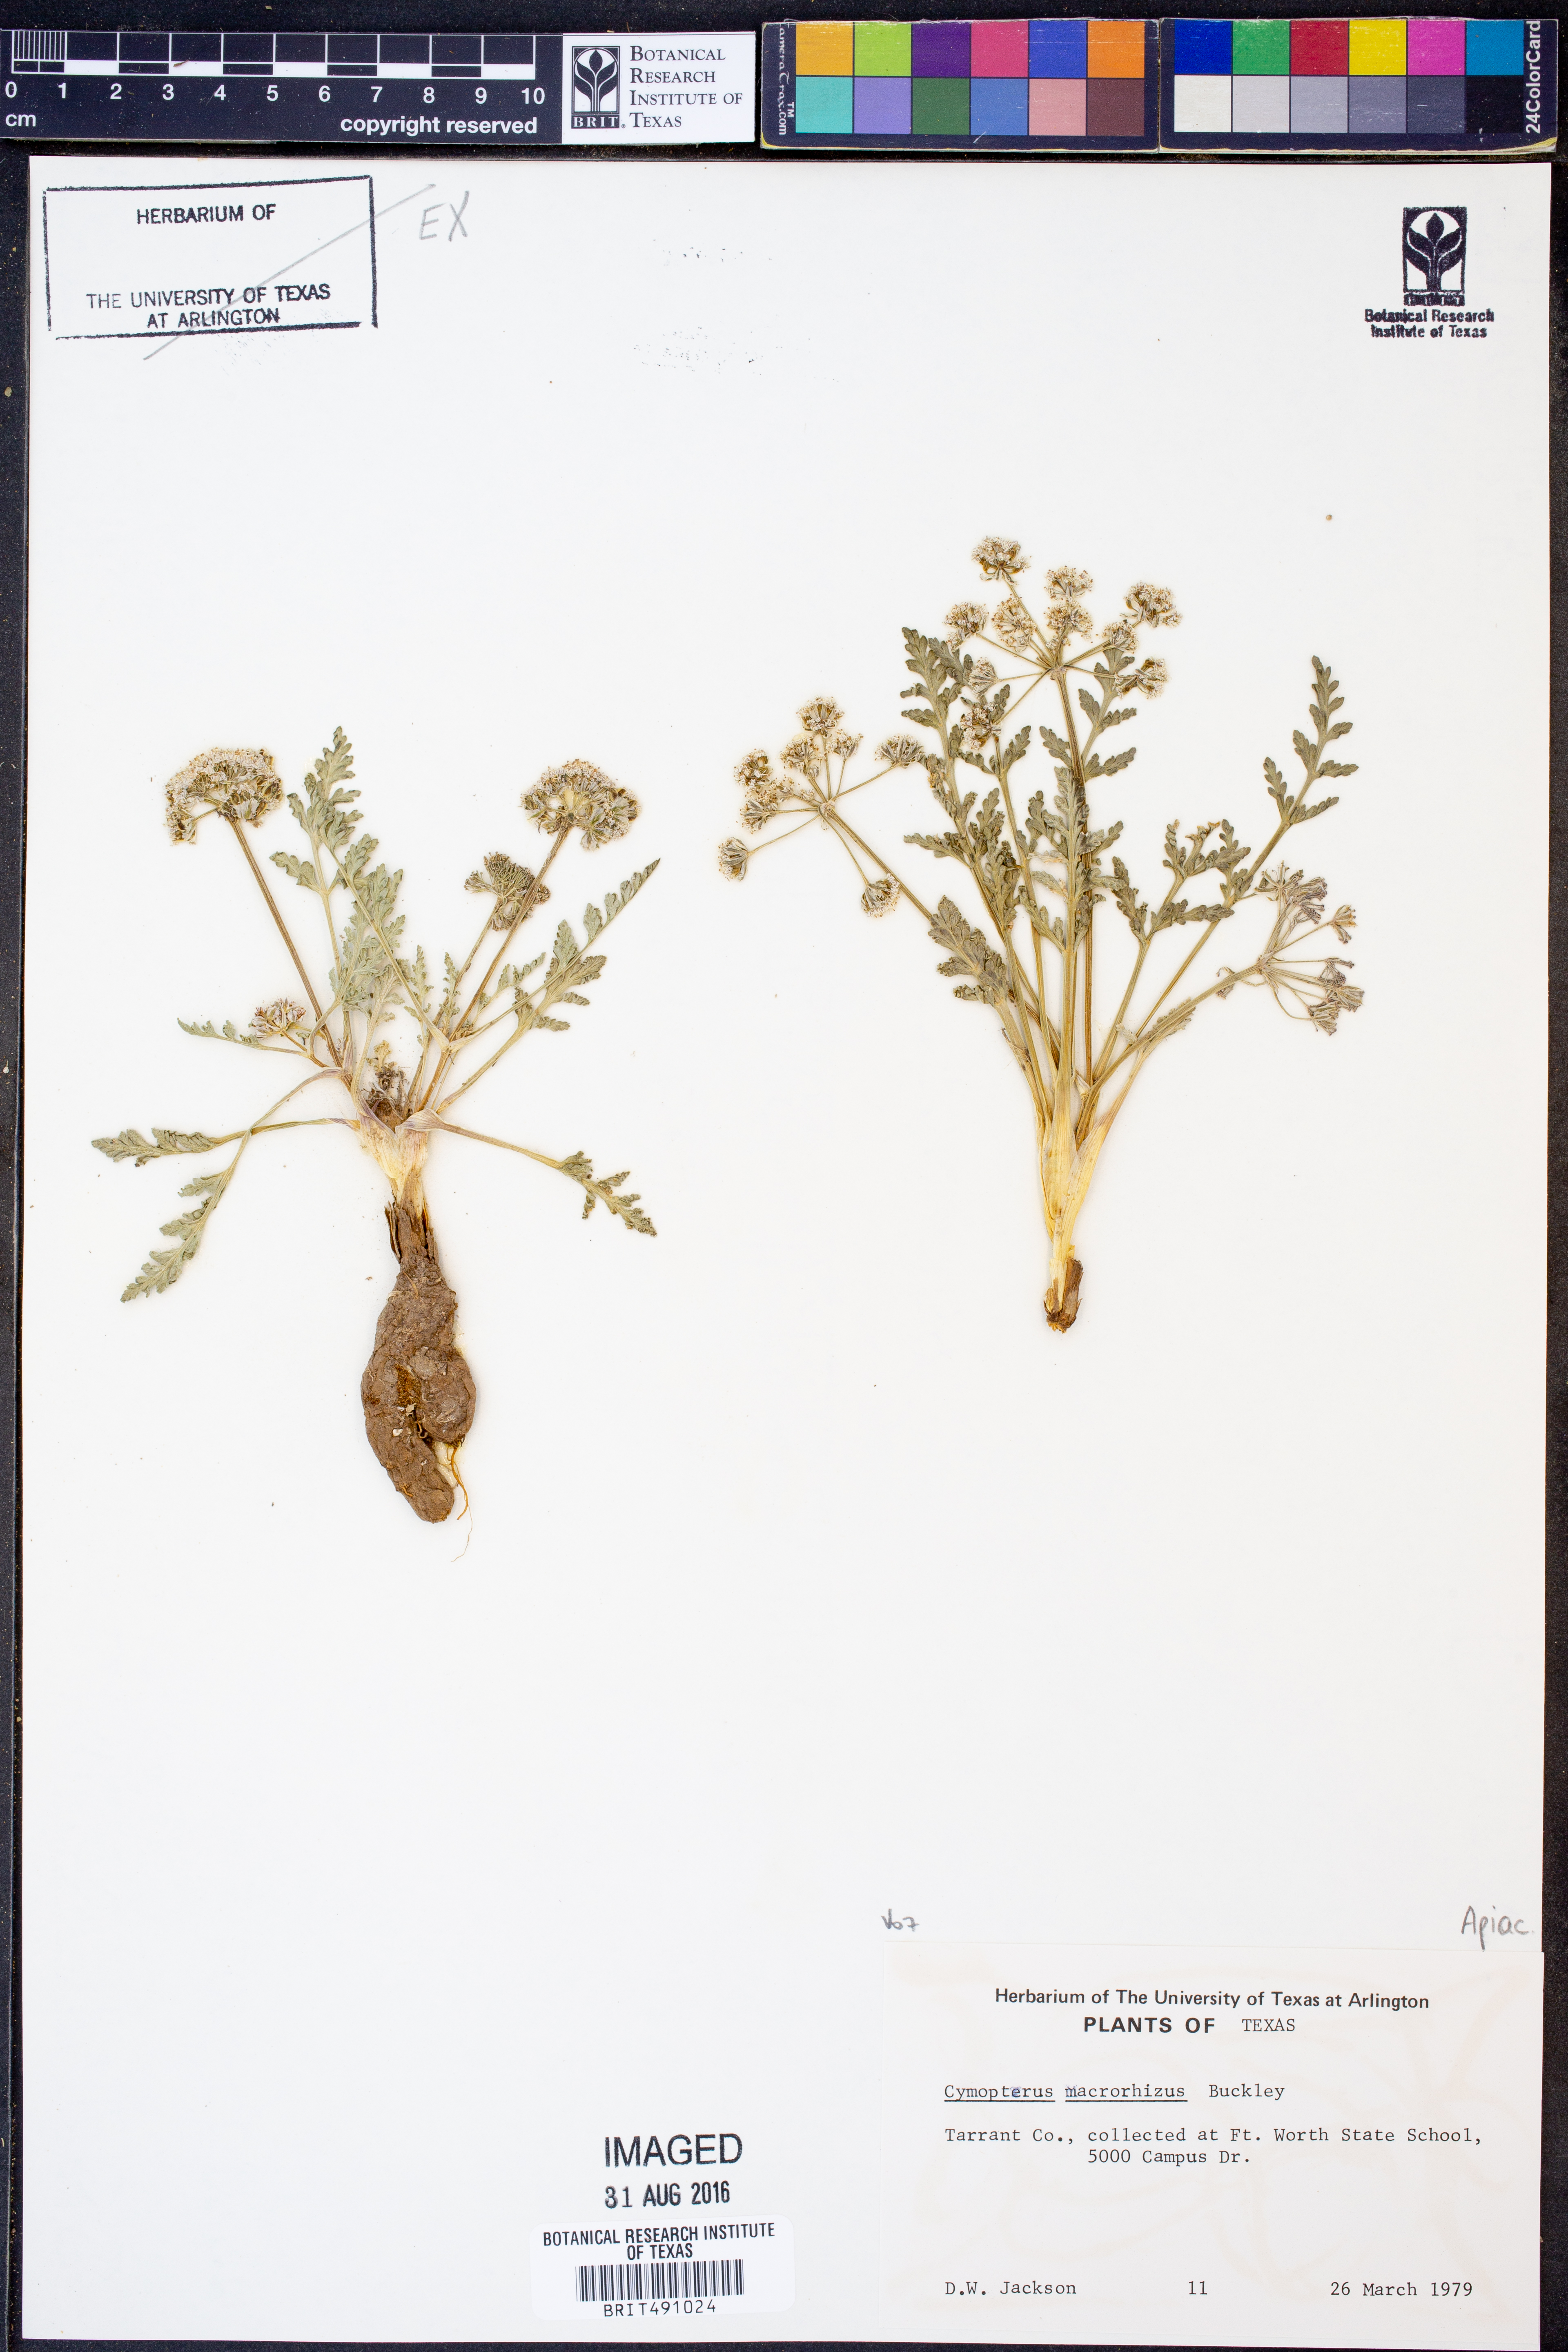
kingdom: Plantae
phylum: Tracheophyta
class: Magnoliopsida
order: Apiales
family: Apiaceae
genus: Vesper
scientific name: Vesper macrorhizus
